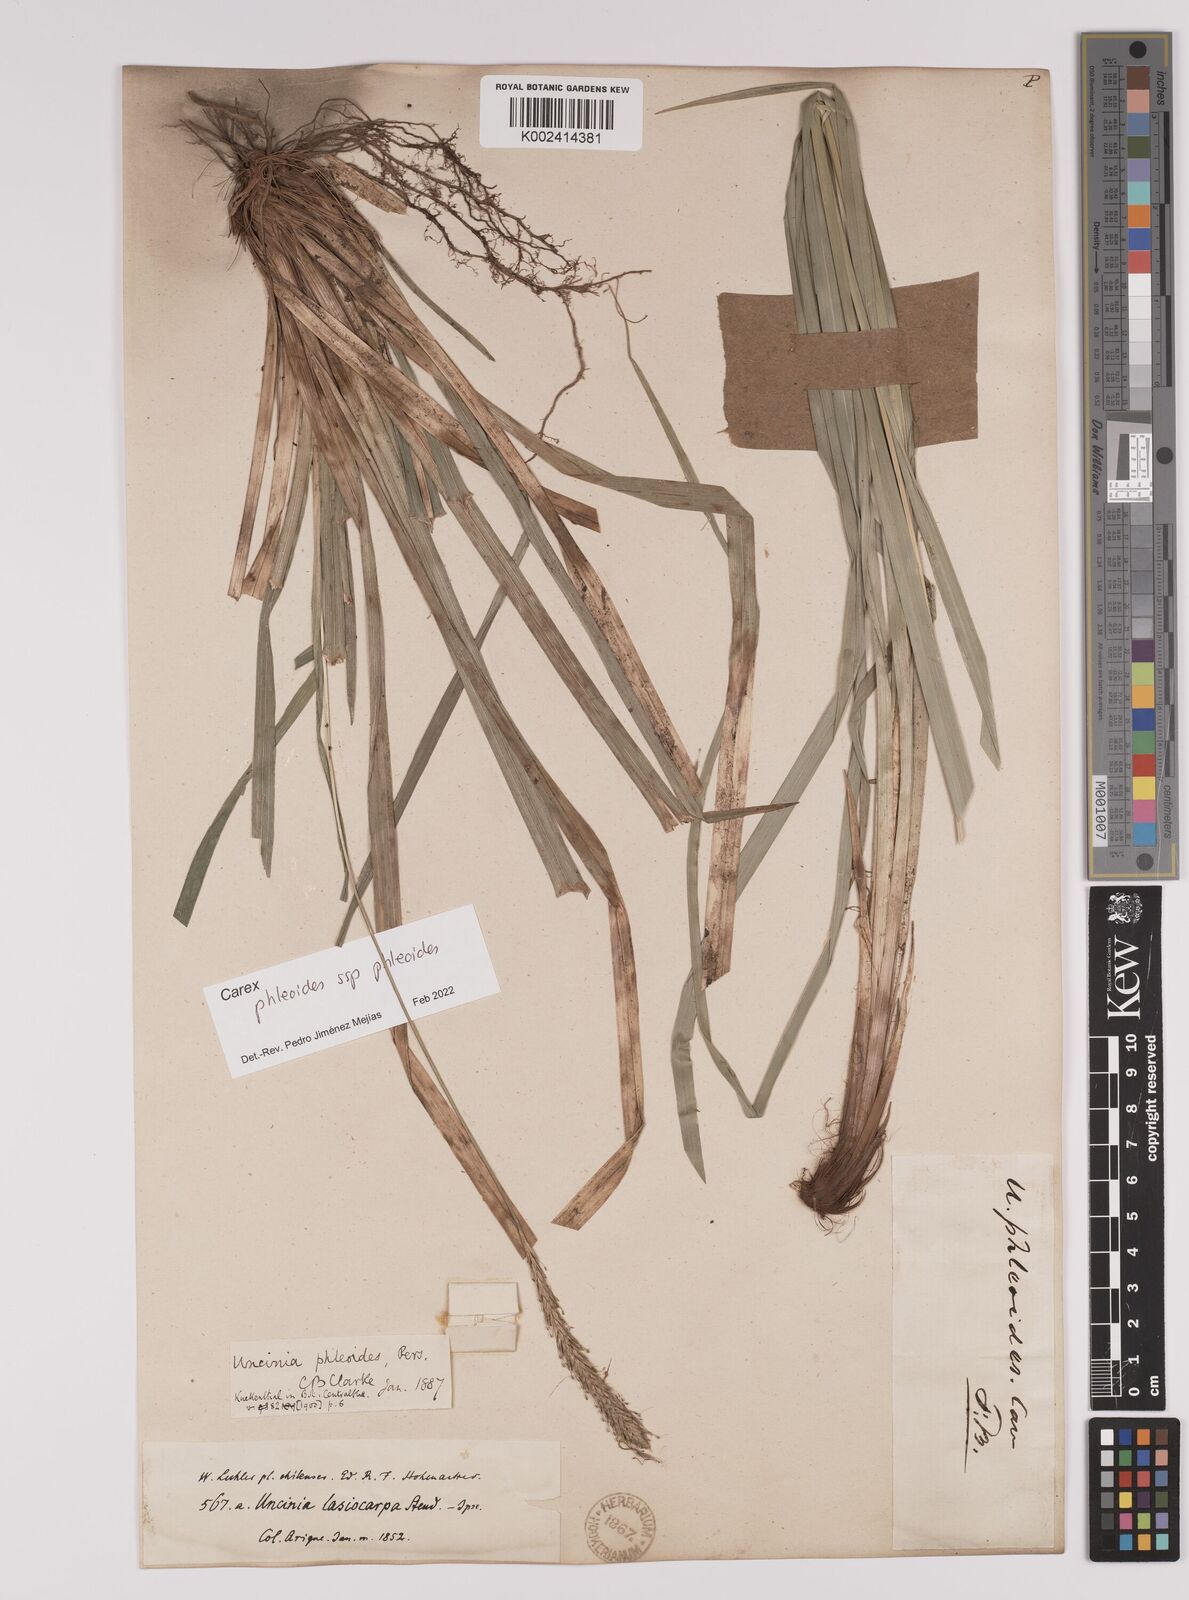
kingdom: Plantae
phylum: Tracheophyta
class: Liliopsida
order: Poales
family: Cyperaceae
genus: Carex
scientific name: Carex phleoides
